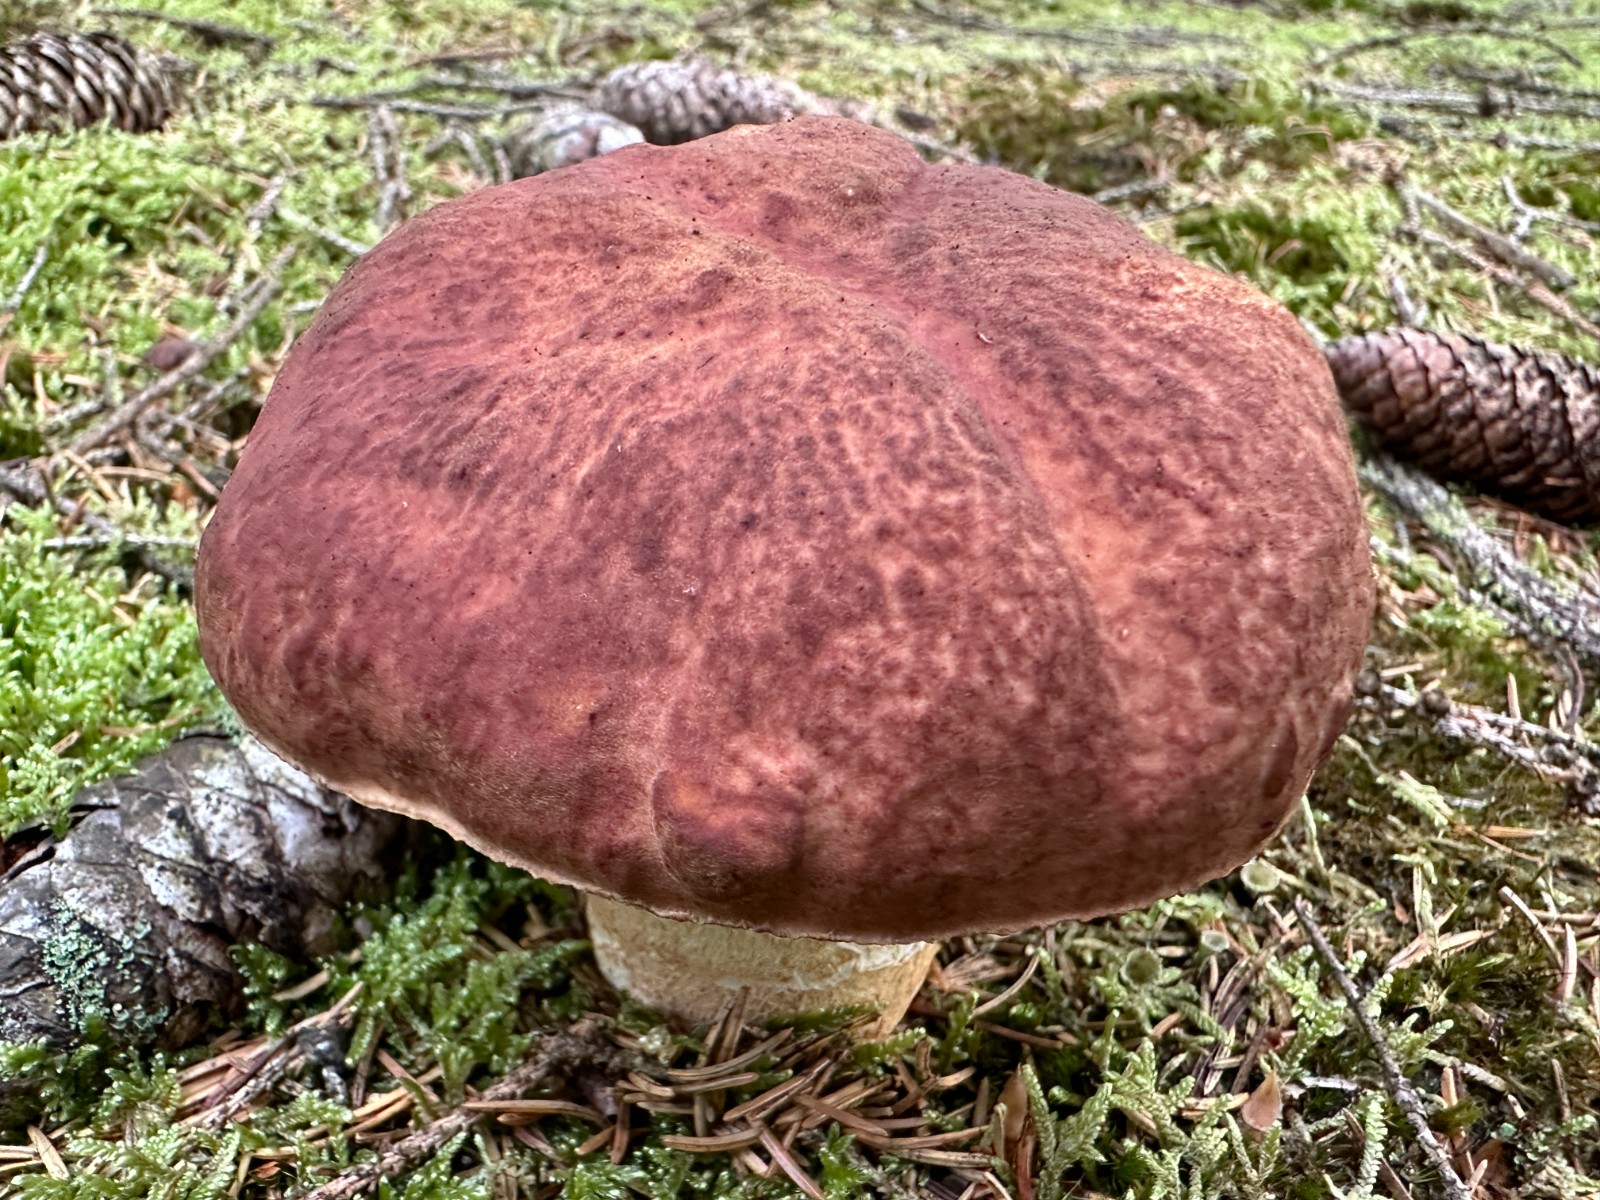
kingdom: Fungi
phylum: Basidiomycota
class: Agaricomycetes
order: Boletales
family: Boletaceae
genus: Boletus
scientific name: Boletus pinophilus
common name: rødbrun rørhat
